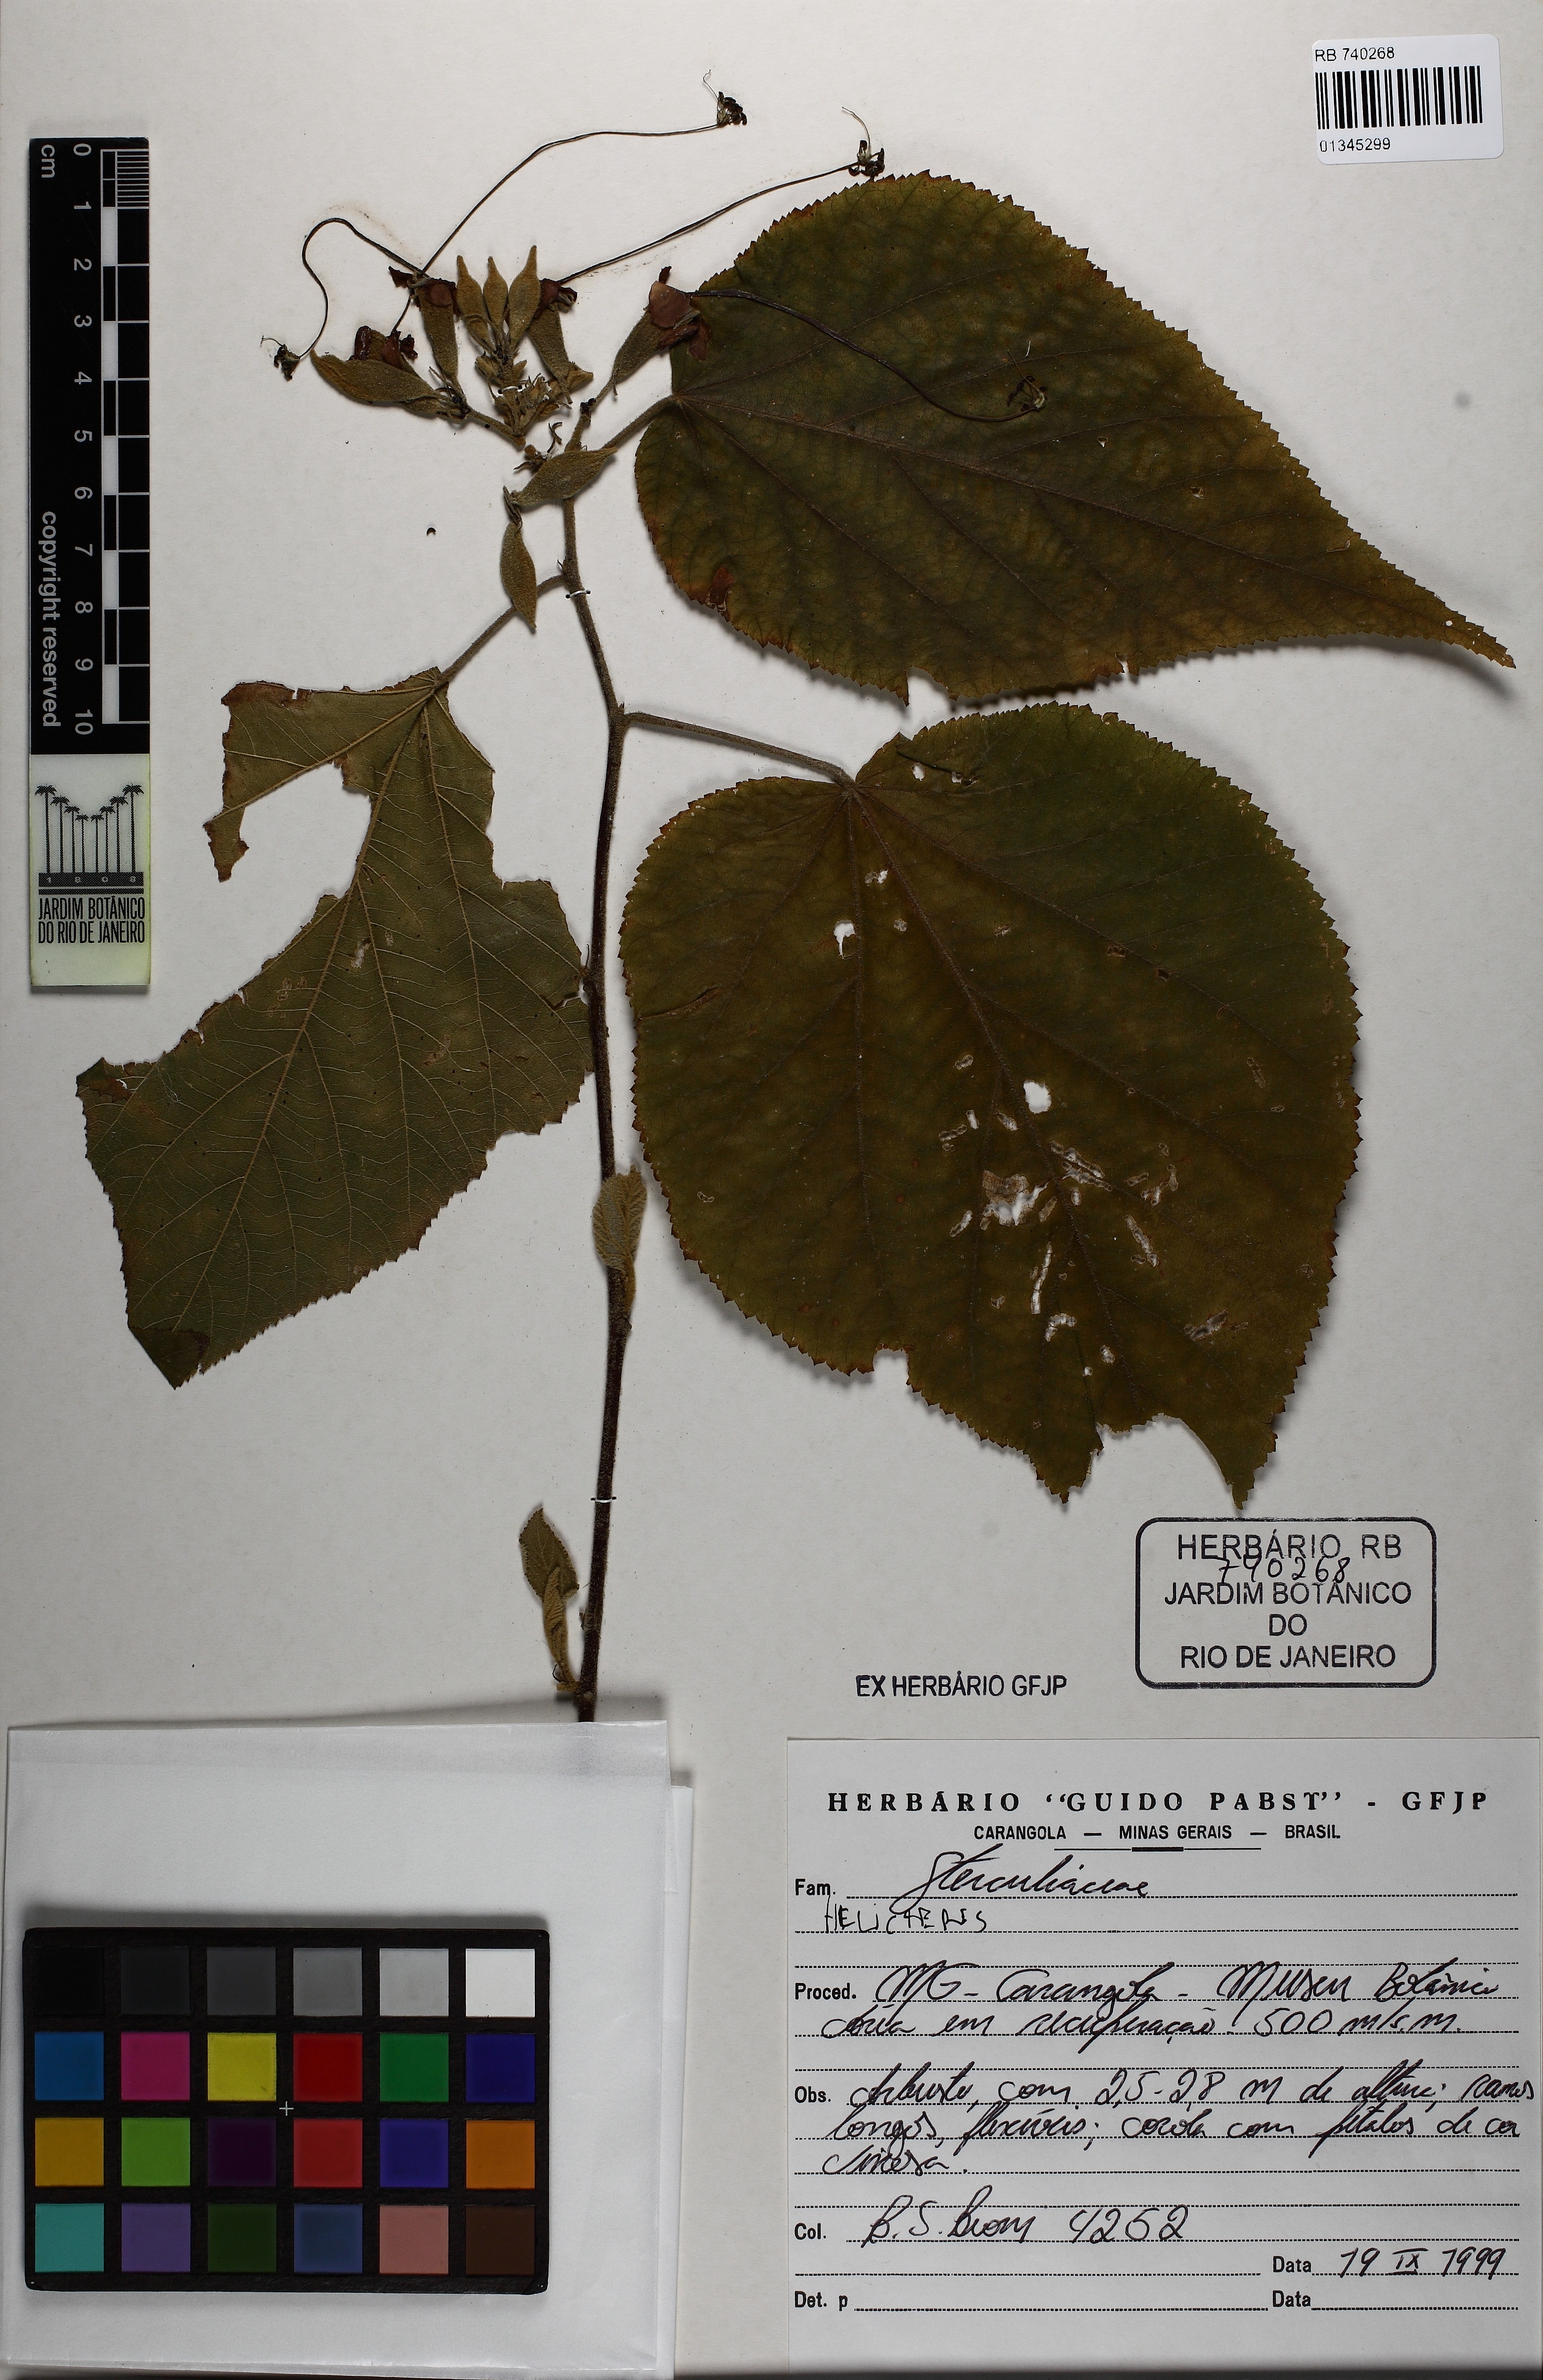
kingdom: Plantae
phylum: Tracheophyta
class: Magnoliopsida
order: Malvales
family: Malvaceae
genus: Helicteres
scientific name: Helicteres
